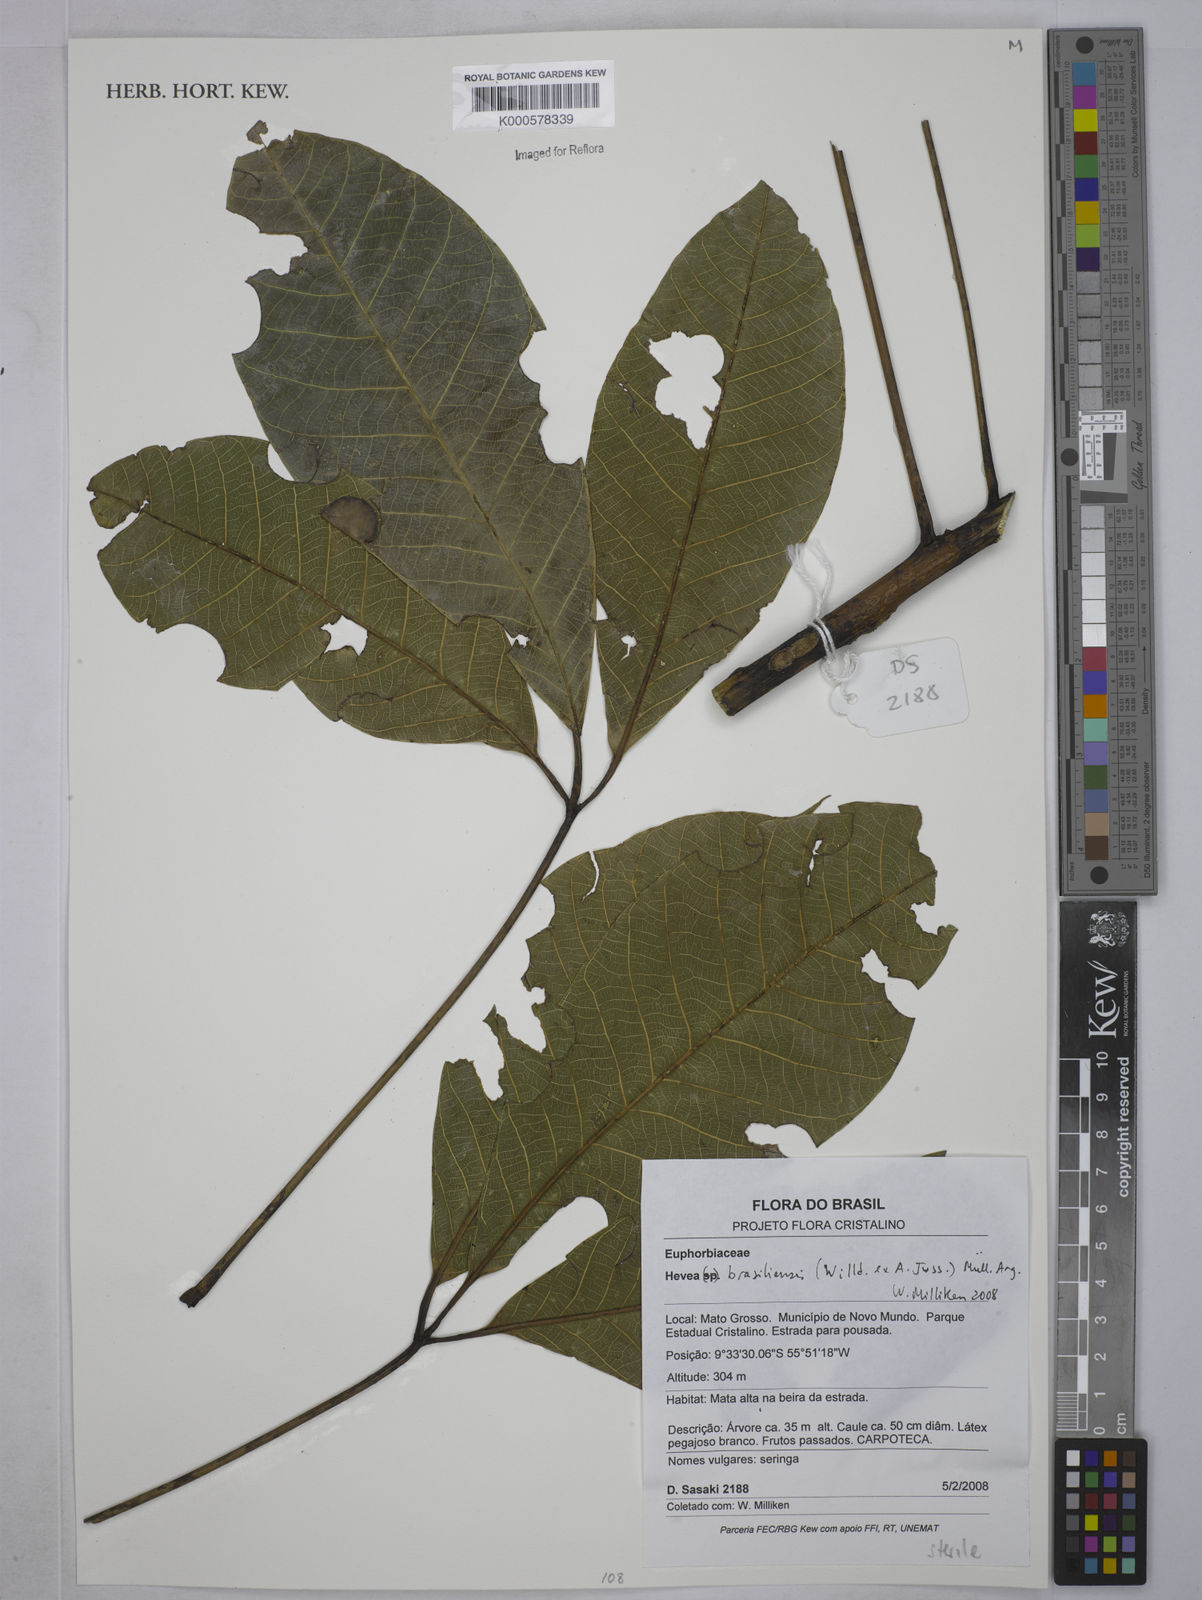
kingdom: Plantae
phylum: Tracheophyta
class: Magnoliopsida
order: Malpighiales
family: Euphorbiaceae
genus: Hevea
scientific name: Hevea
